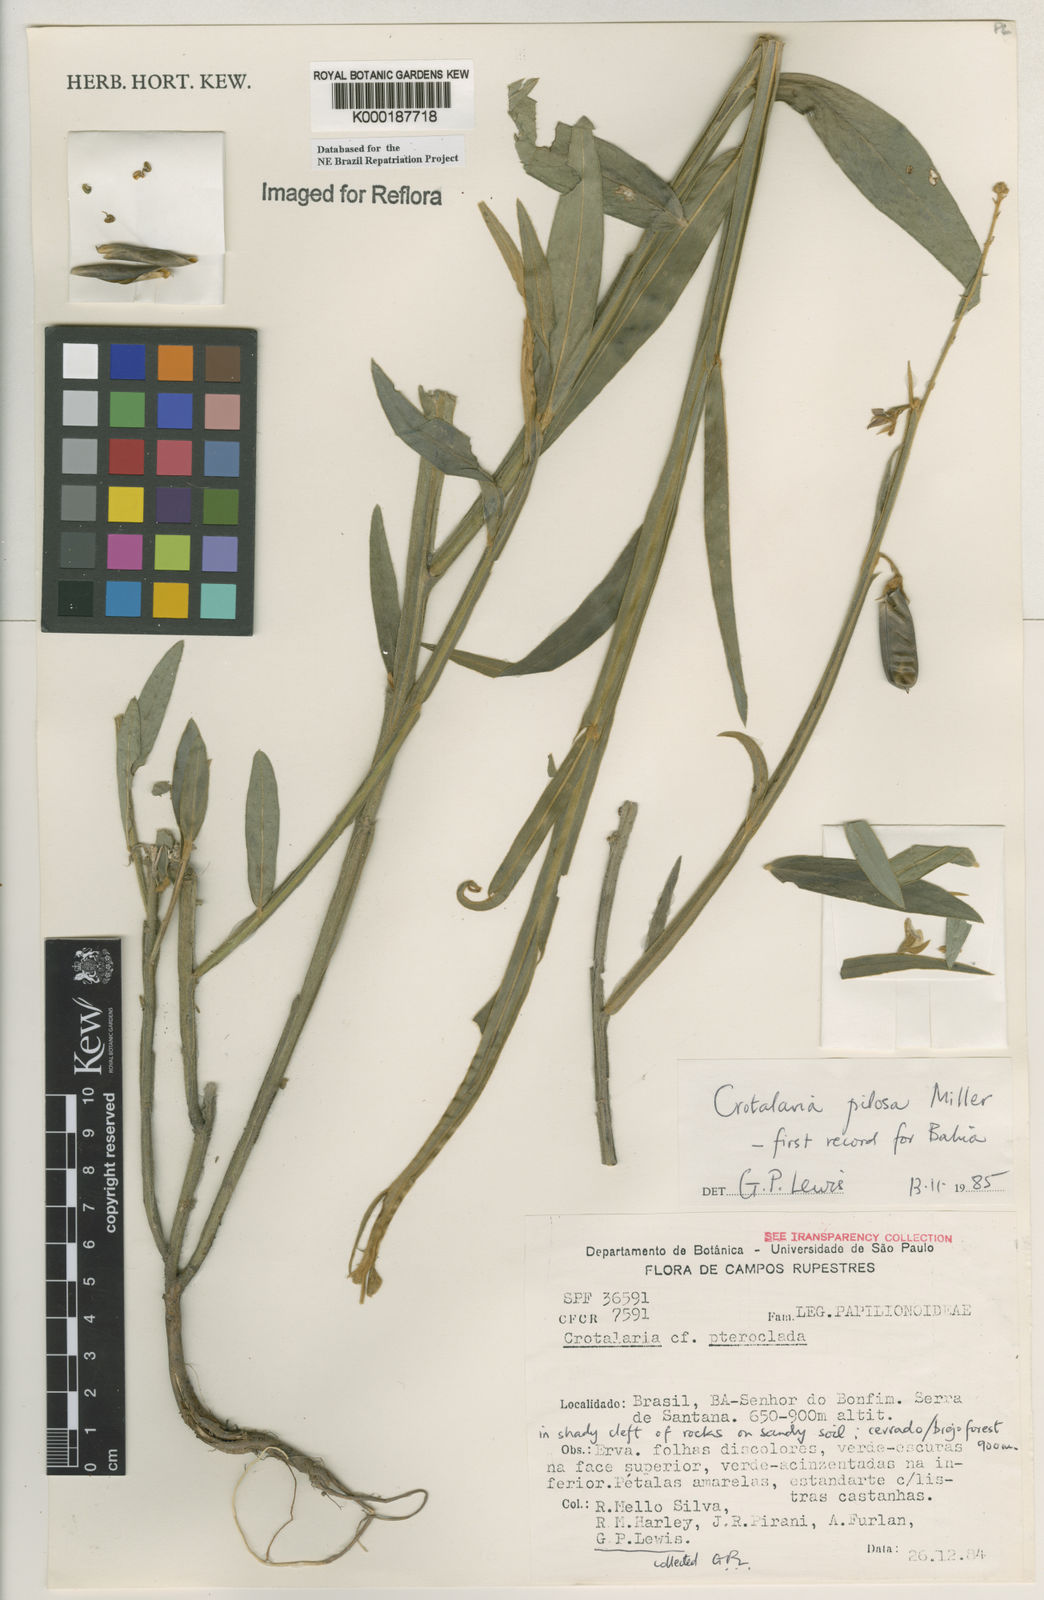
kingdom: Plantae
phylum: Tracheophyta
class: Magnoliopsida
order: Fabales
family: Fabaceae
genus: Crotalaria
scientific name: Crotalaria pilosa
